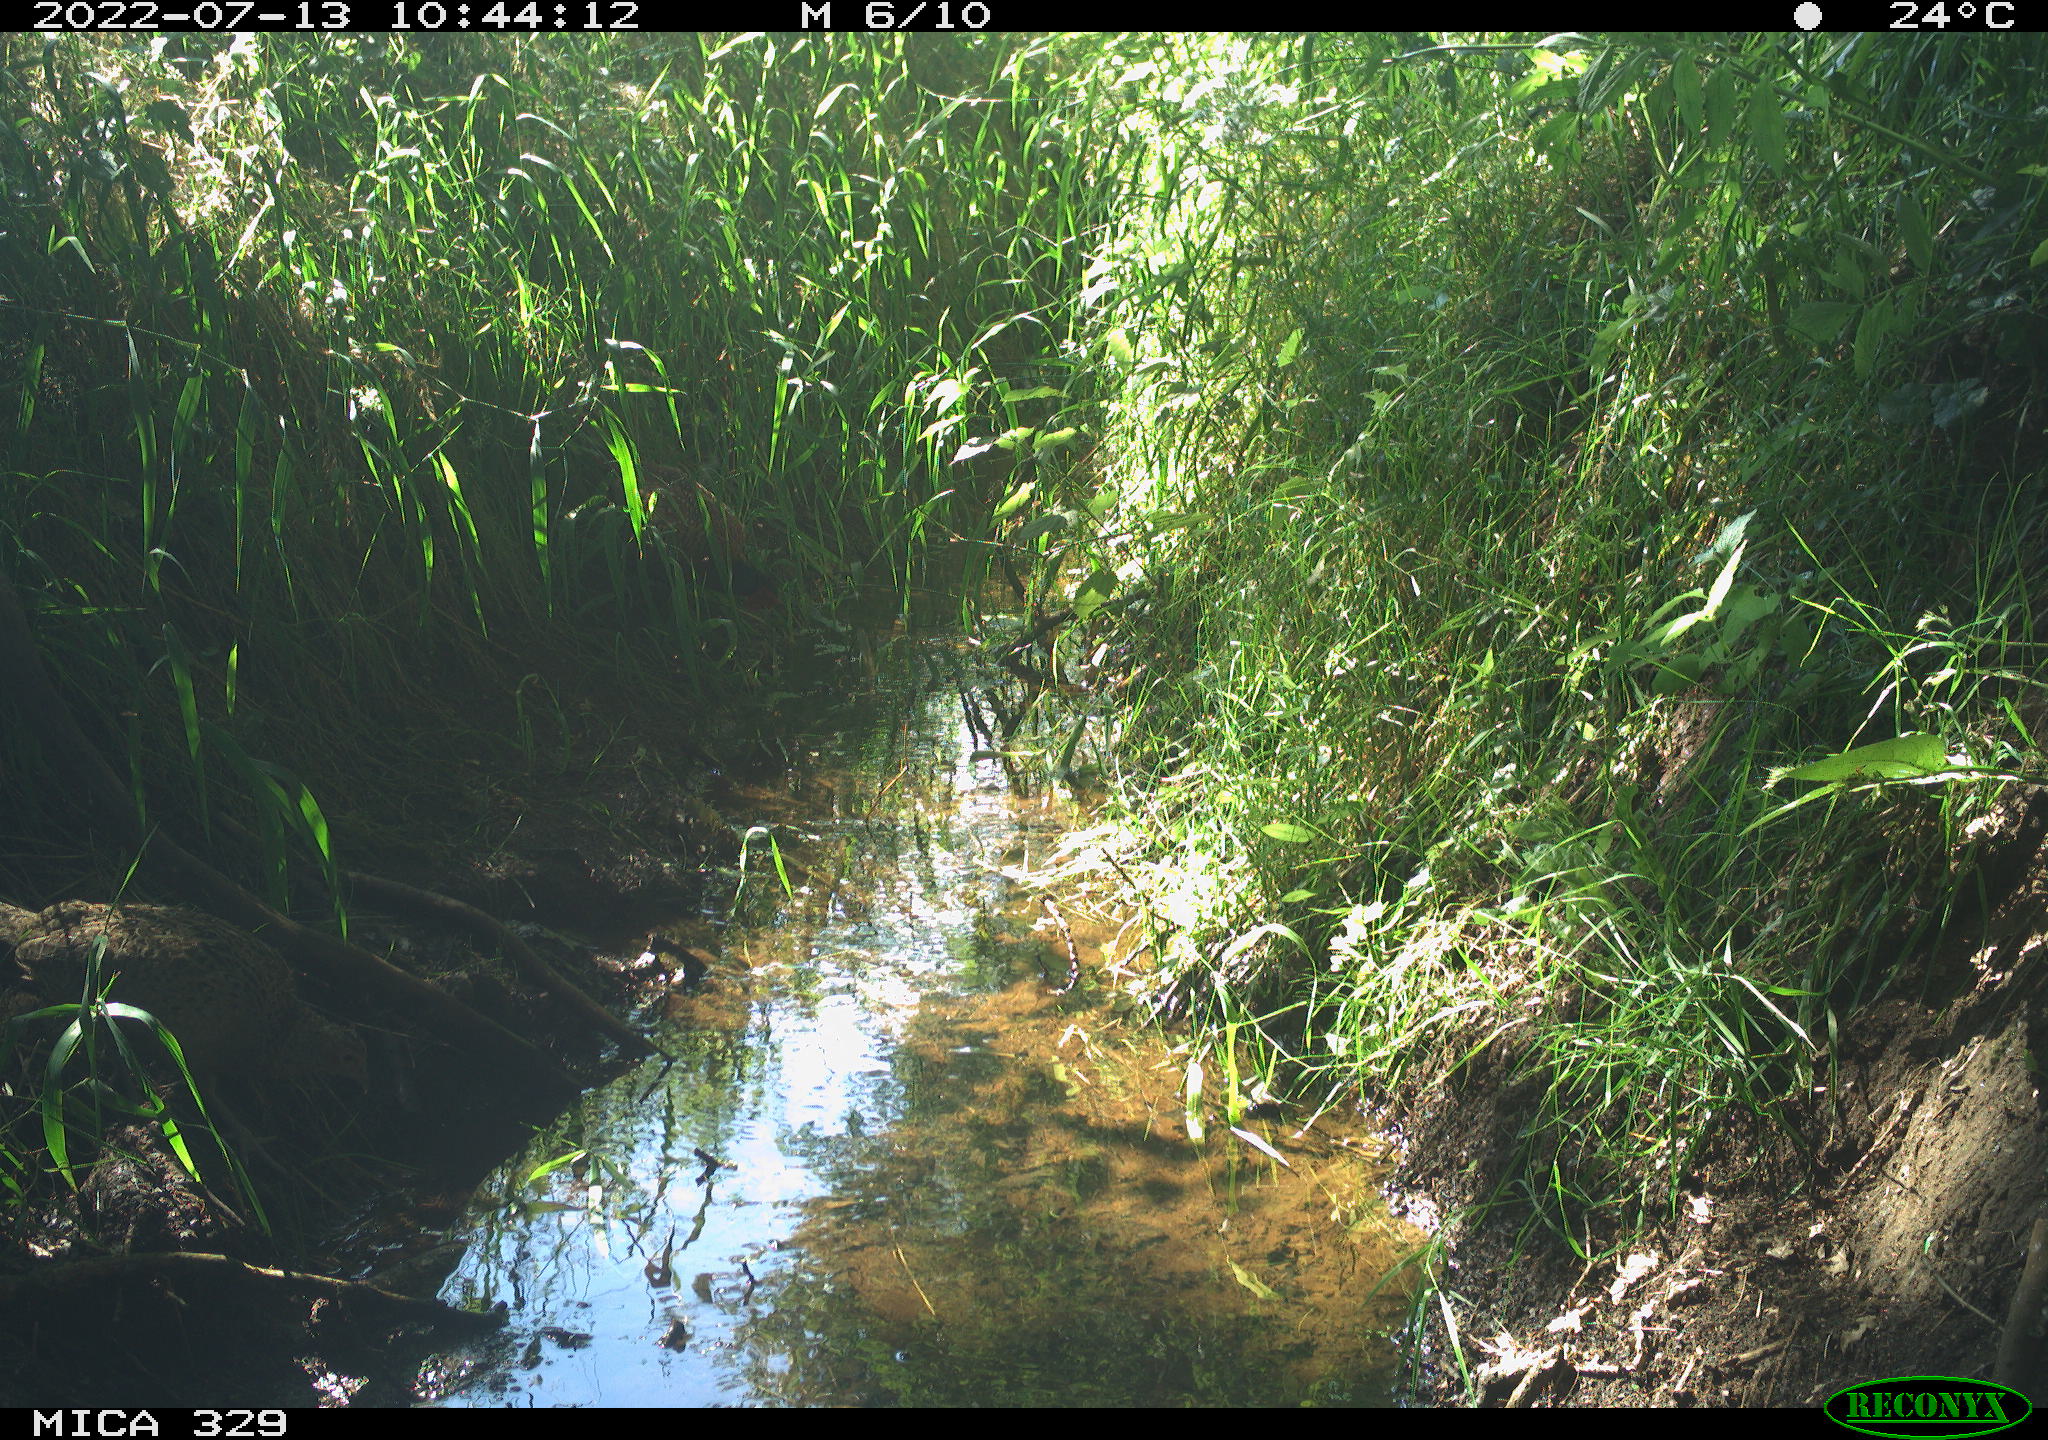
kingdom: Animalia
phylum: Chordata
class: Aves
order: Galliformes
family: Phasianidae
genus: Phasianus
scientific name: Phasianus colchicus
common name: Common pheasant
